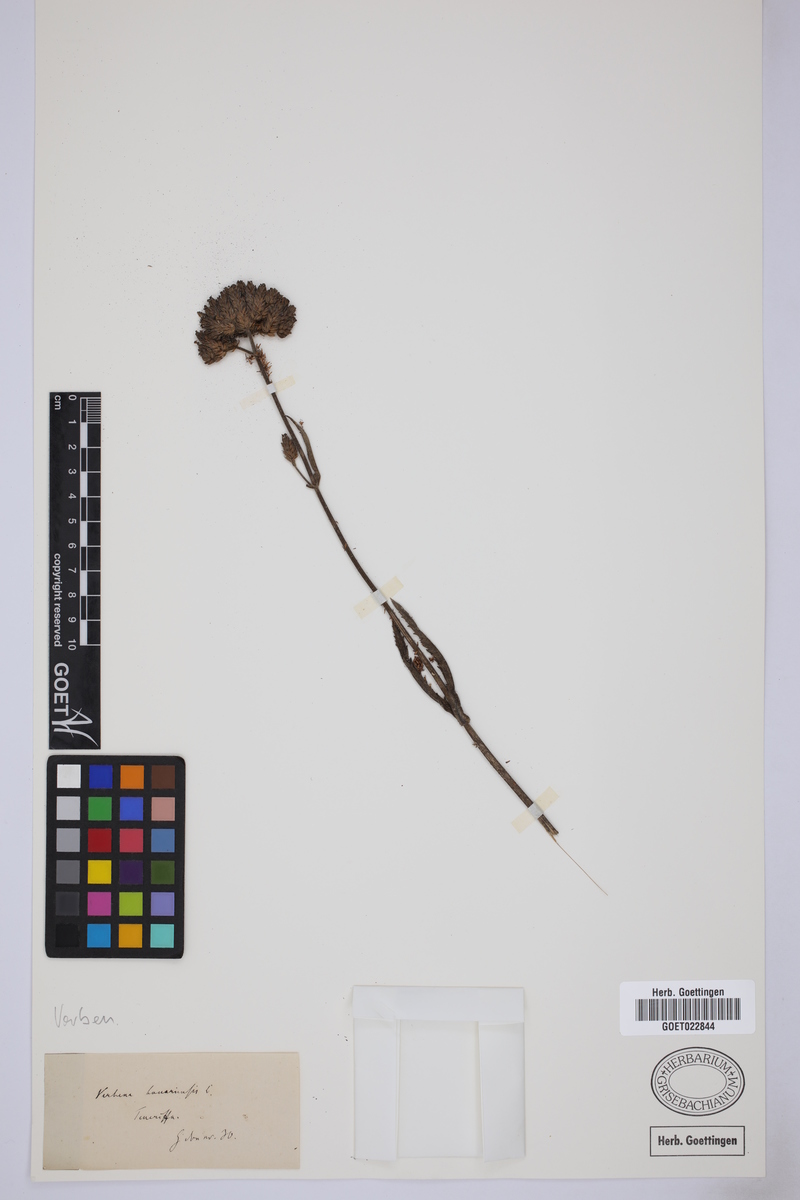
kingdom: Plantae
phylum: Tracheophyta
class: Magnoliopsida
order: Lamiales
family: Verbenaceae
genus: Verbena
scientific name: Verbena bonariensis
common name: Purpletop vervain
